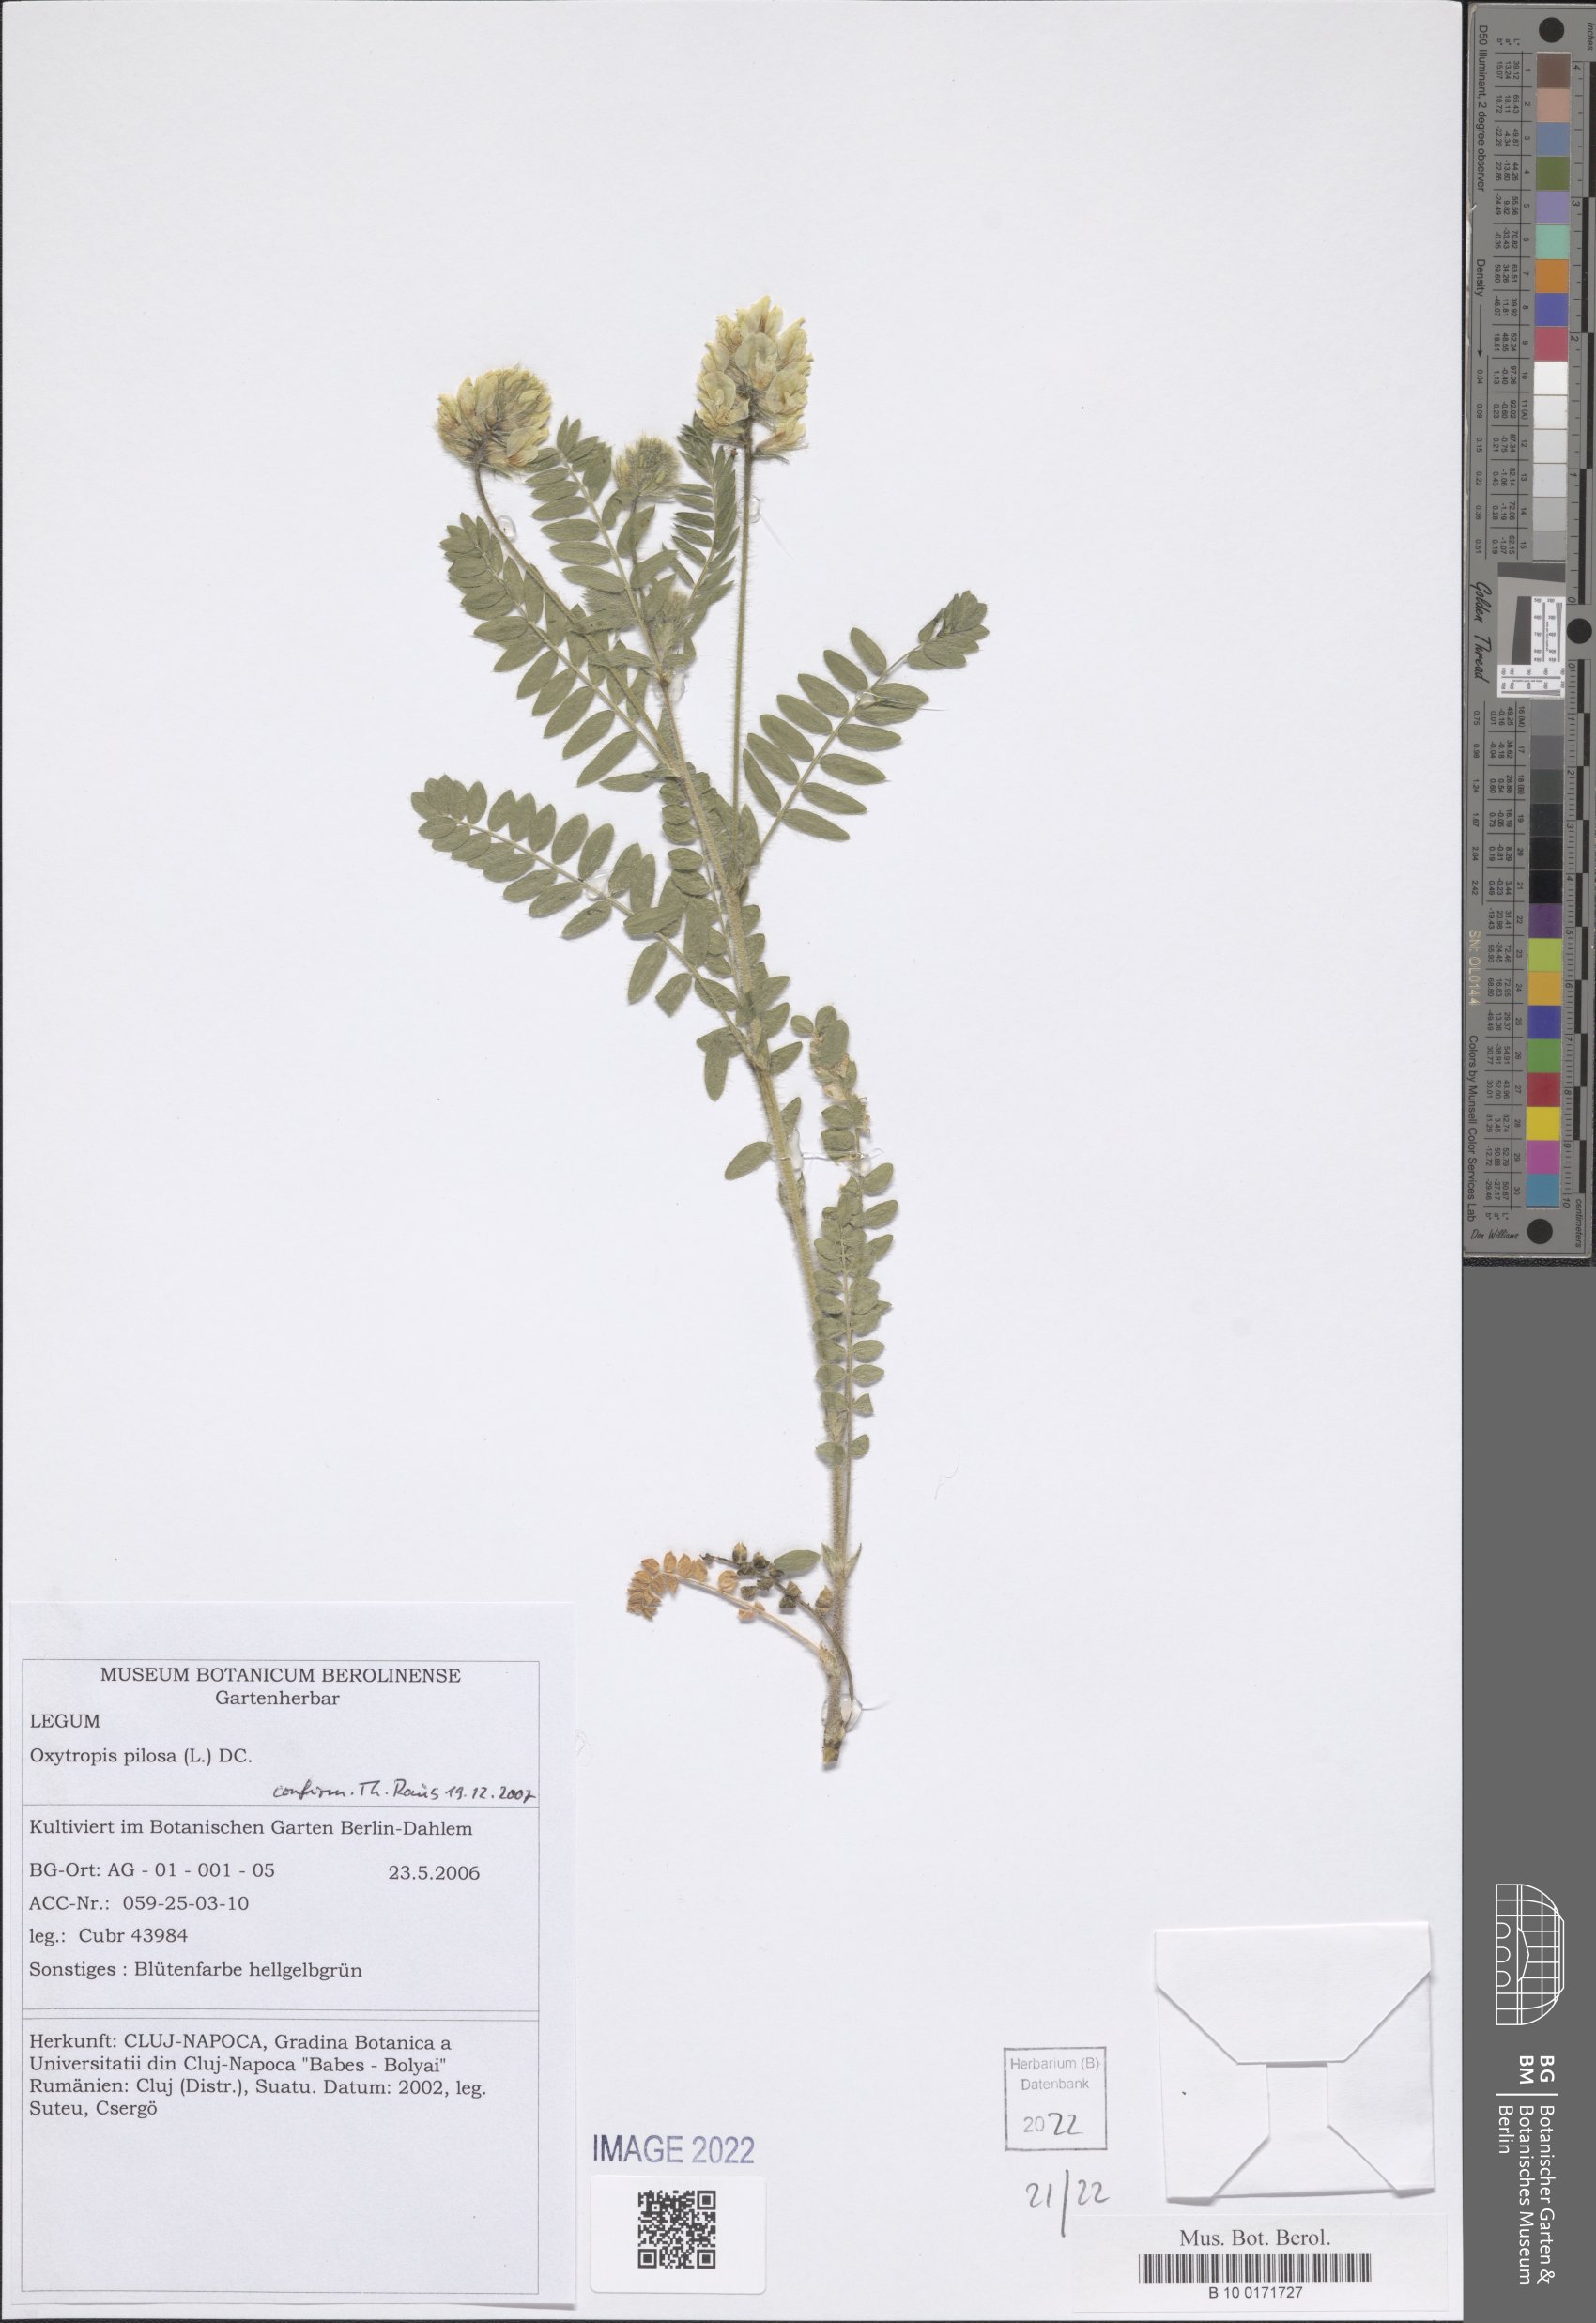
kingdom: Plantae
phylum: Tracheophyta
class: Magnoliopsida
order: Fabales
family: Fabaceae
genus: Oxytropis
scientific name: Oxytropis pilosa
